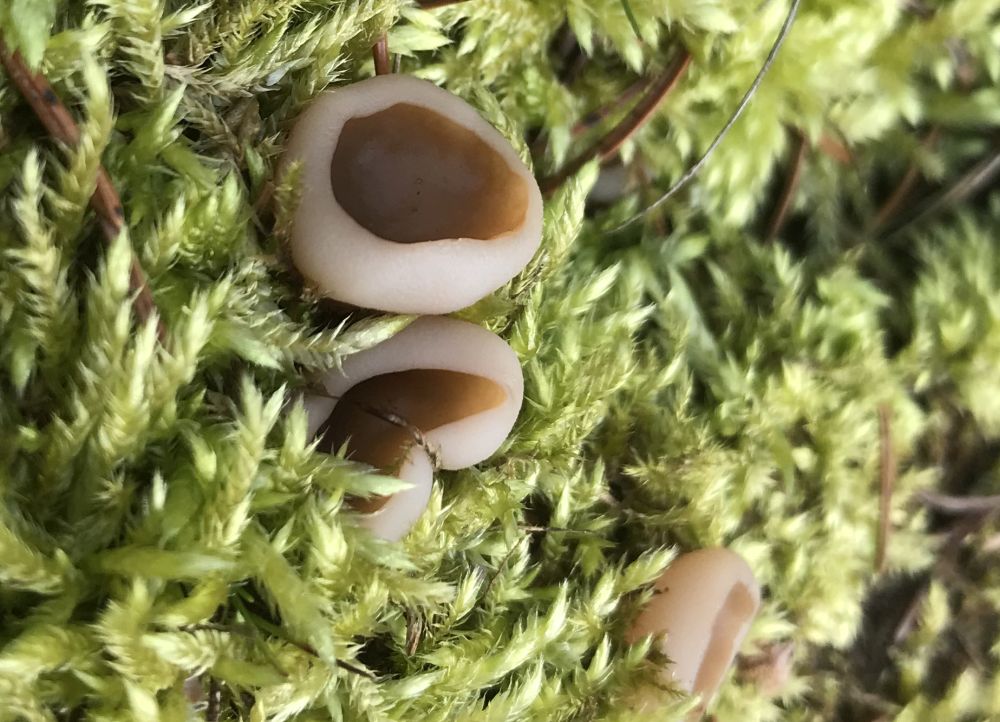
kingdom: Fungi
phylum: Ascomycota
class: Pezizomycetes
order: Pezizales
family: Discinaceae
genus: Discina
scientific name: Discina ancilis
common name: udbredt stenmorkel
